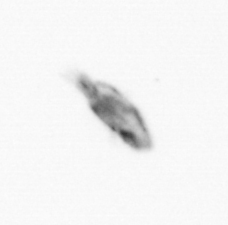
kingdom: Animalia
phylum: Arthropoda
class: Copepoda
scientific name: Copepoda
